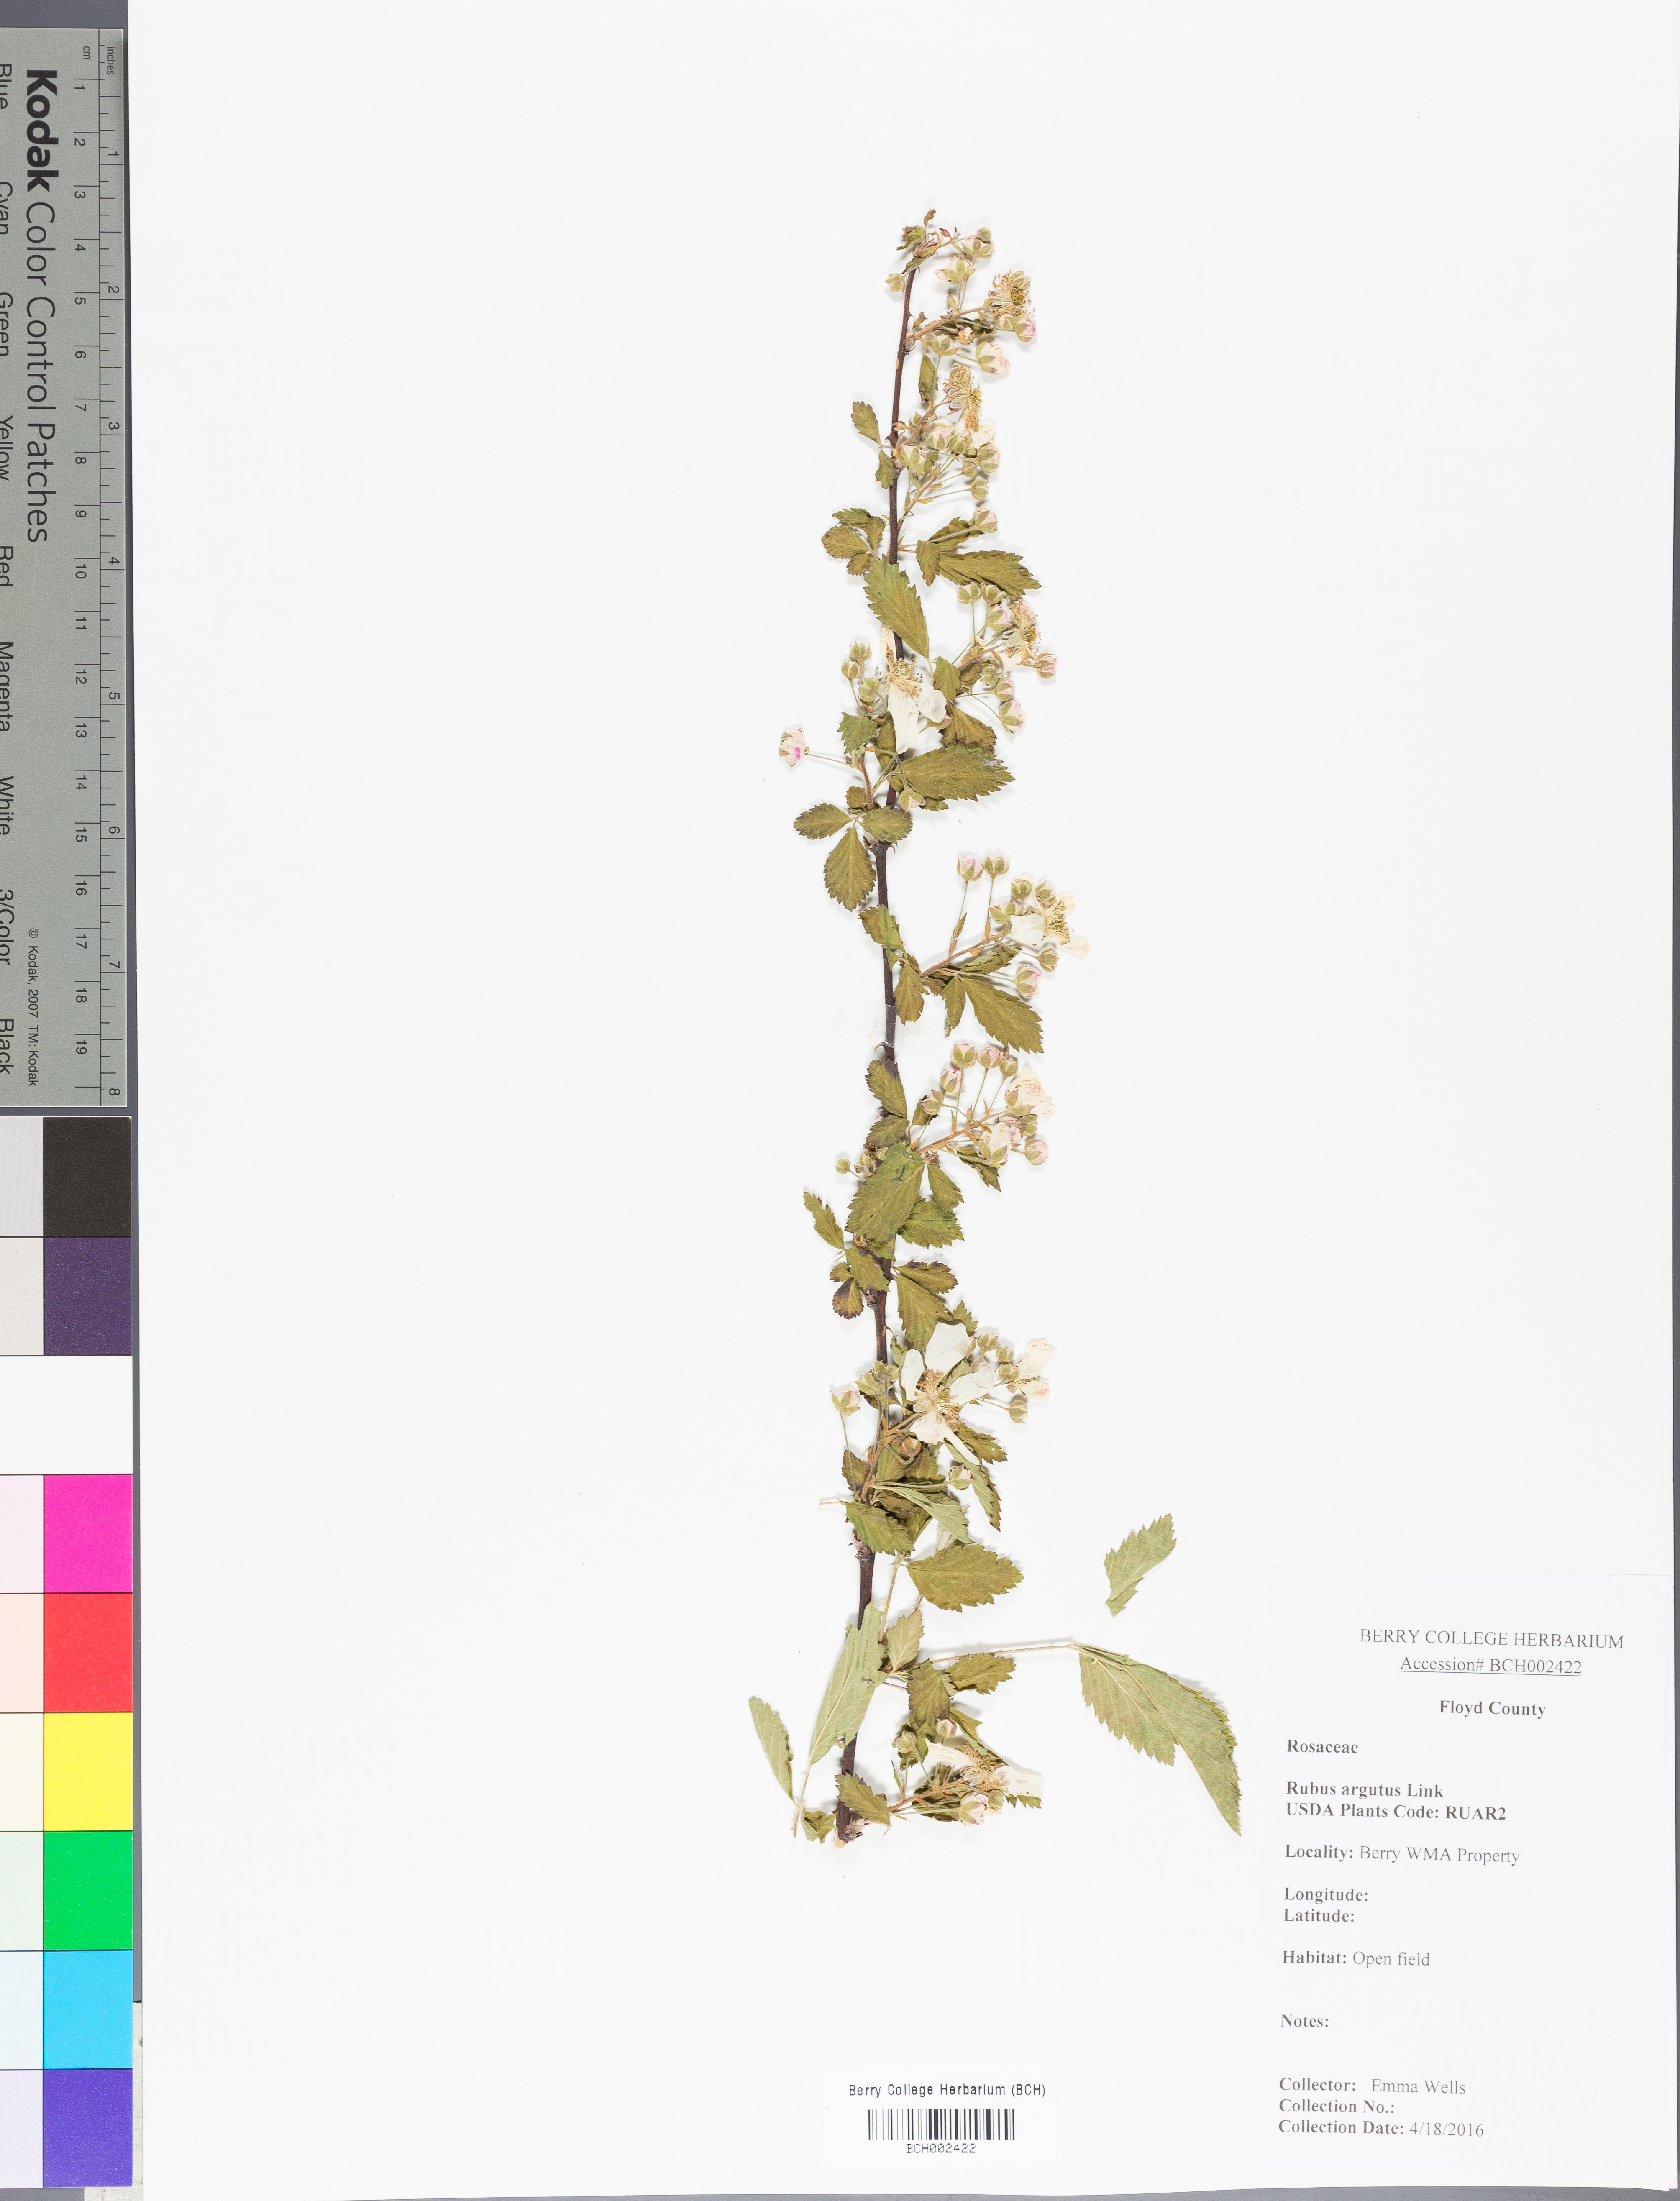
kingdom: Plantae
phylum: Tracheophyta
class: Magnoliopsida
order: Rosales
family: Rosaceae
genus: Rubus
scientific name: Rubus argutus
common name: Sawtooth blackberry
